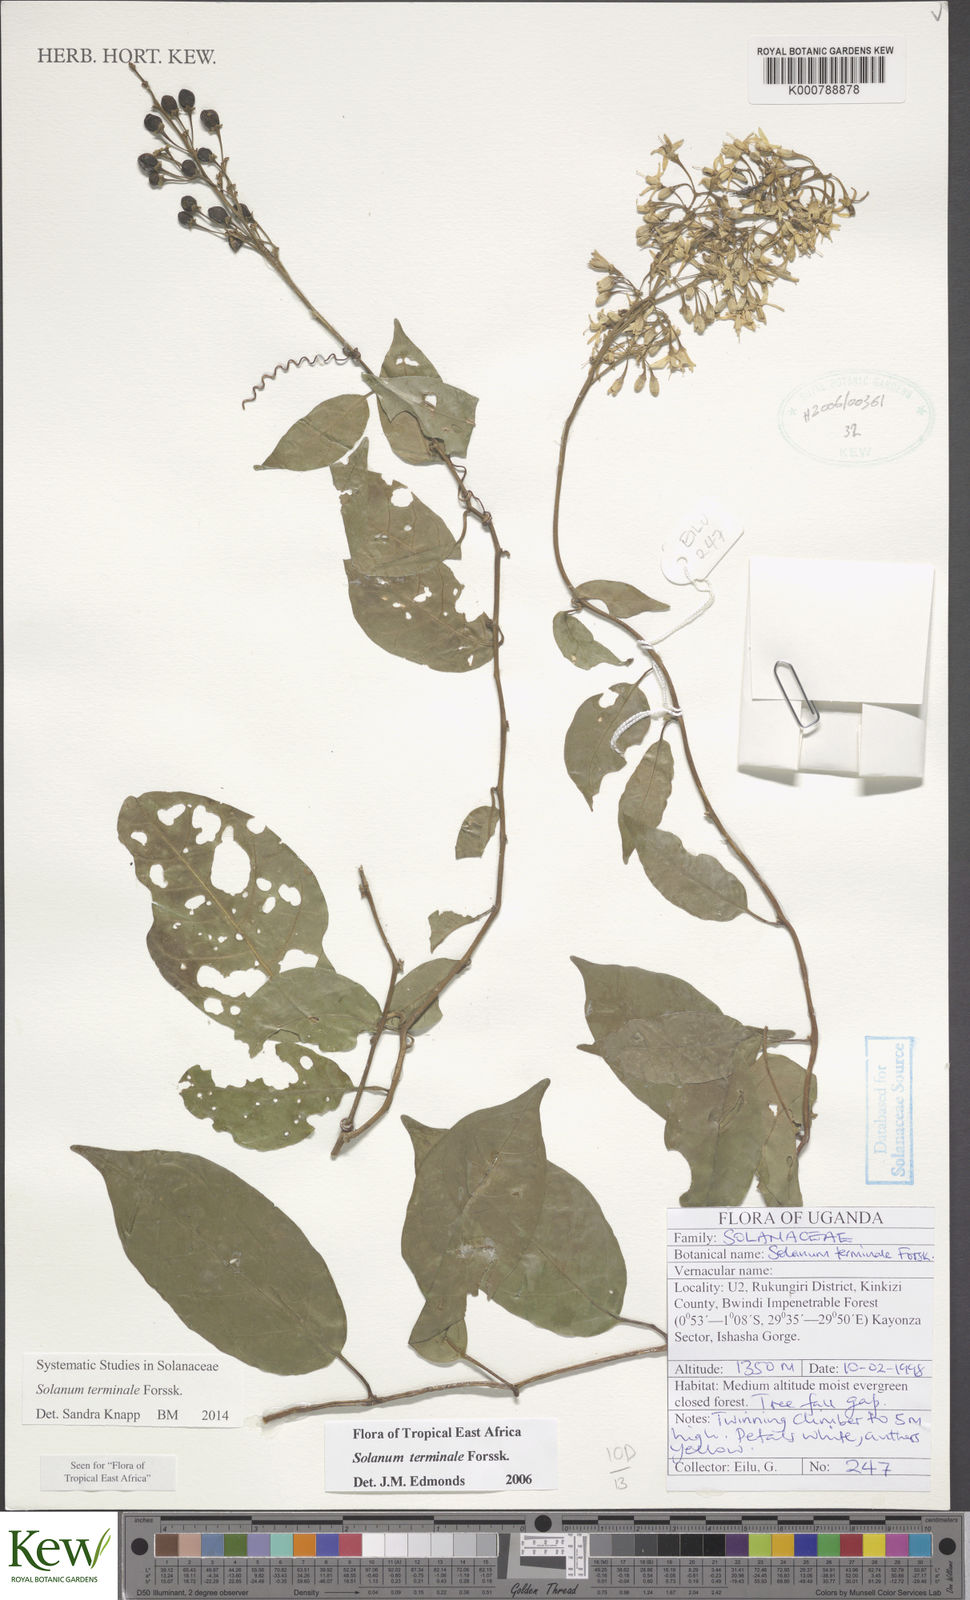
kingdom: Plantae
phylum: Tracheophyta
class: Magnoliopsida
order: Solanales
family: Solanaceae
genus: Solanum
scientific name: Solanum terminale
